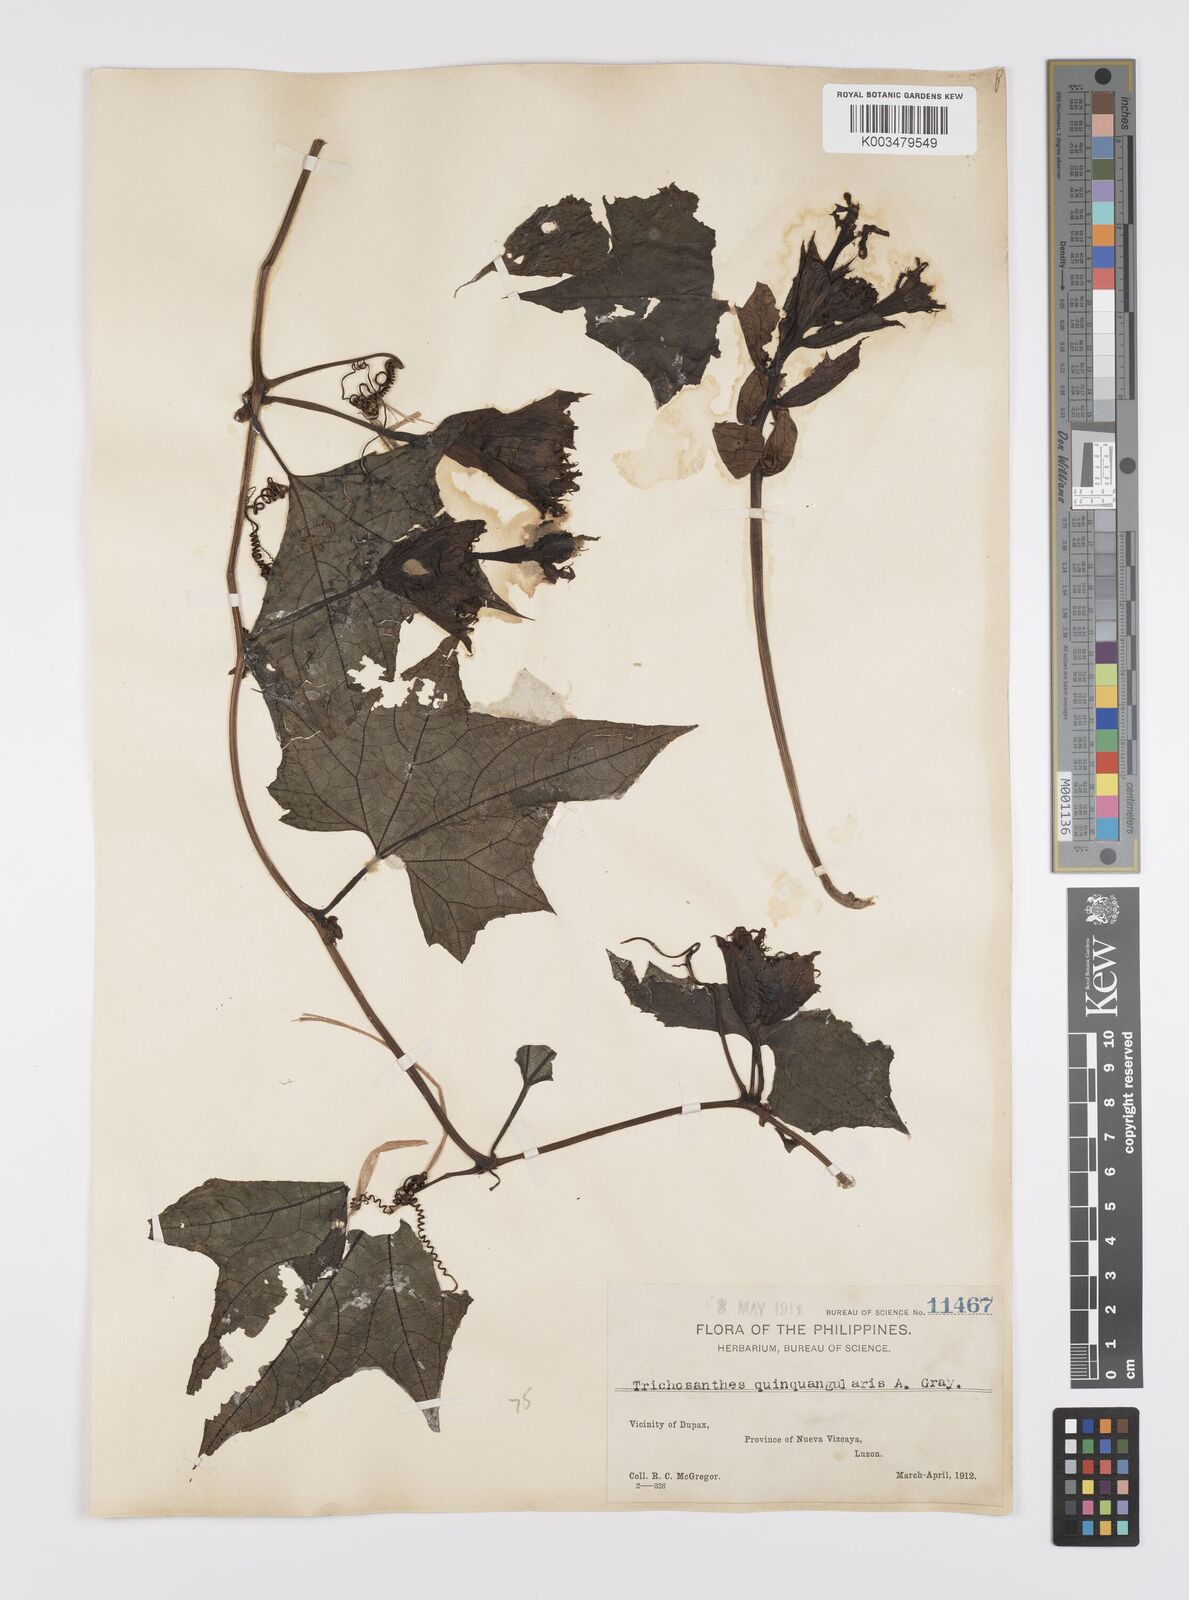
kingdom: Plantae
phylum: Tracheophyta
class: Magnoliopsida
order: Cucurbitales
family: Cucurbitaceae
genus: Trichosanthes
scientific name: Trichosanthes tricuspidata
